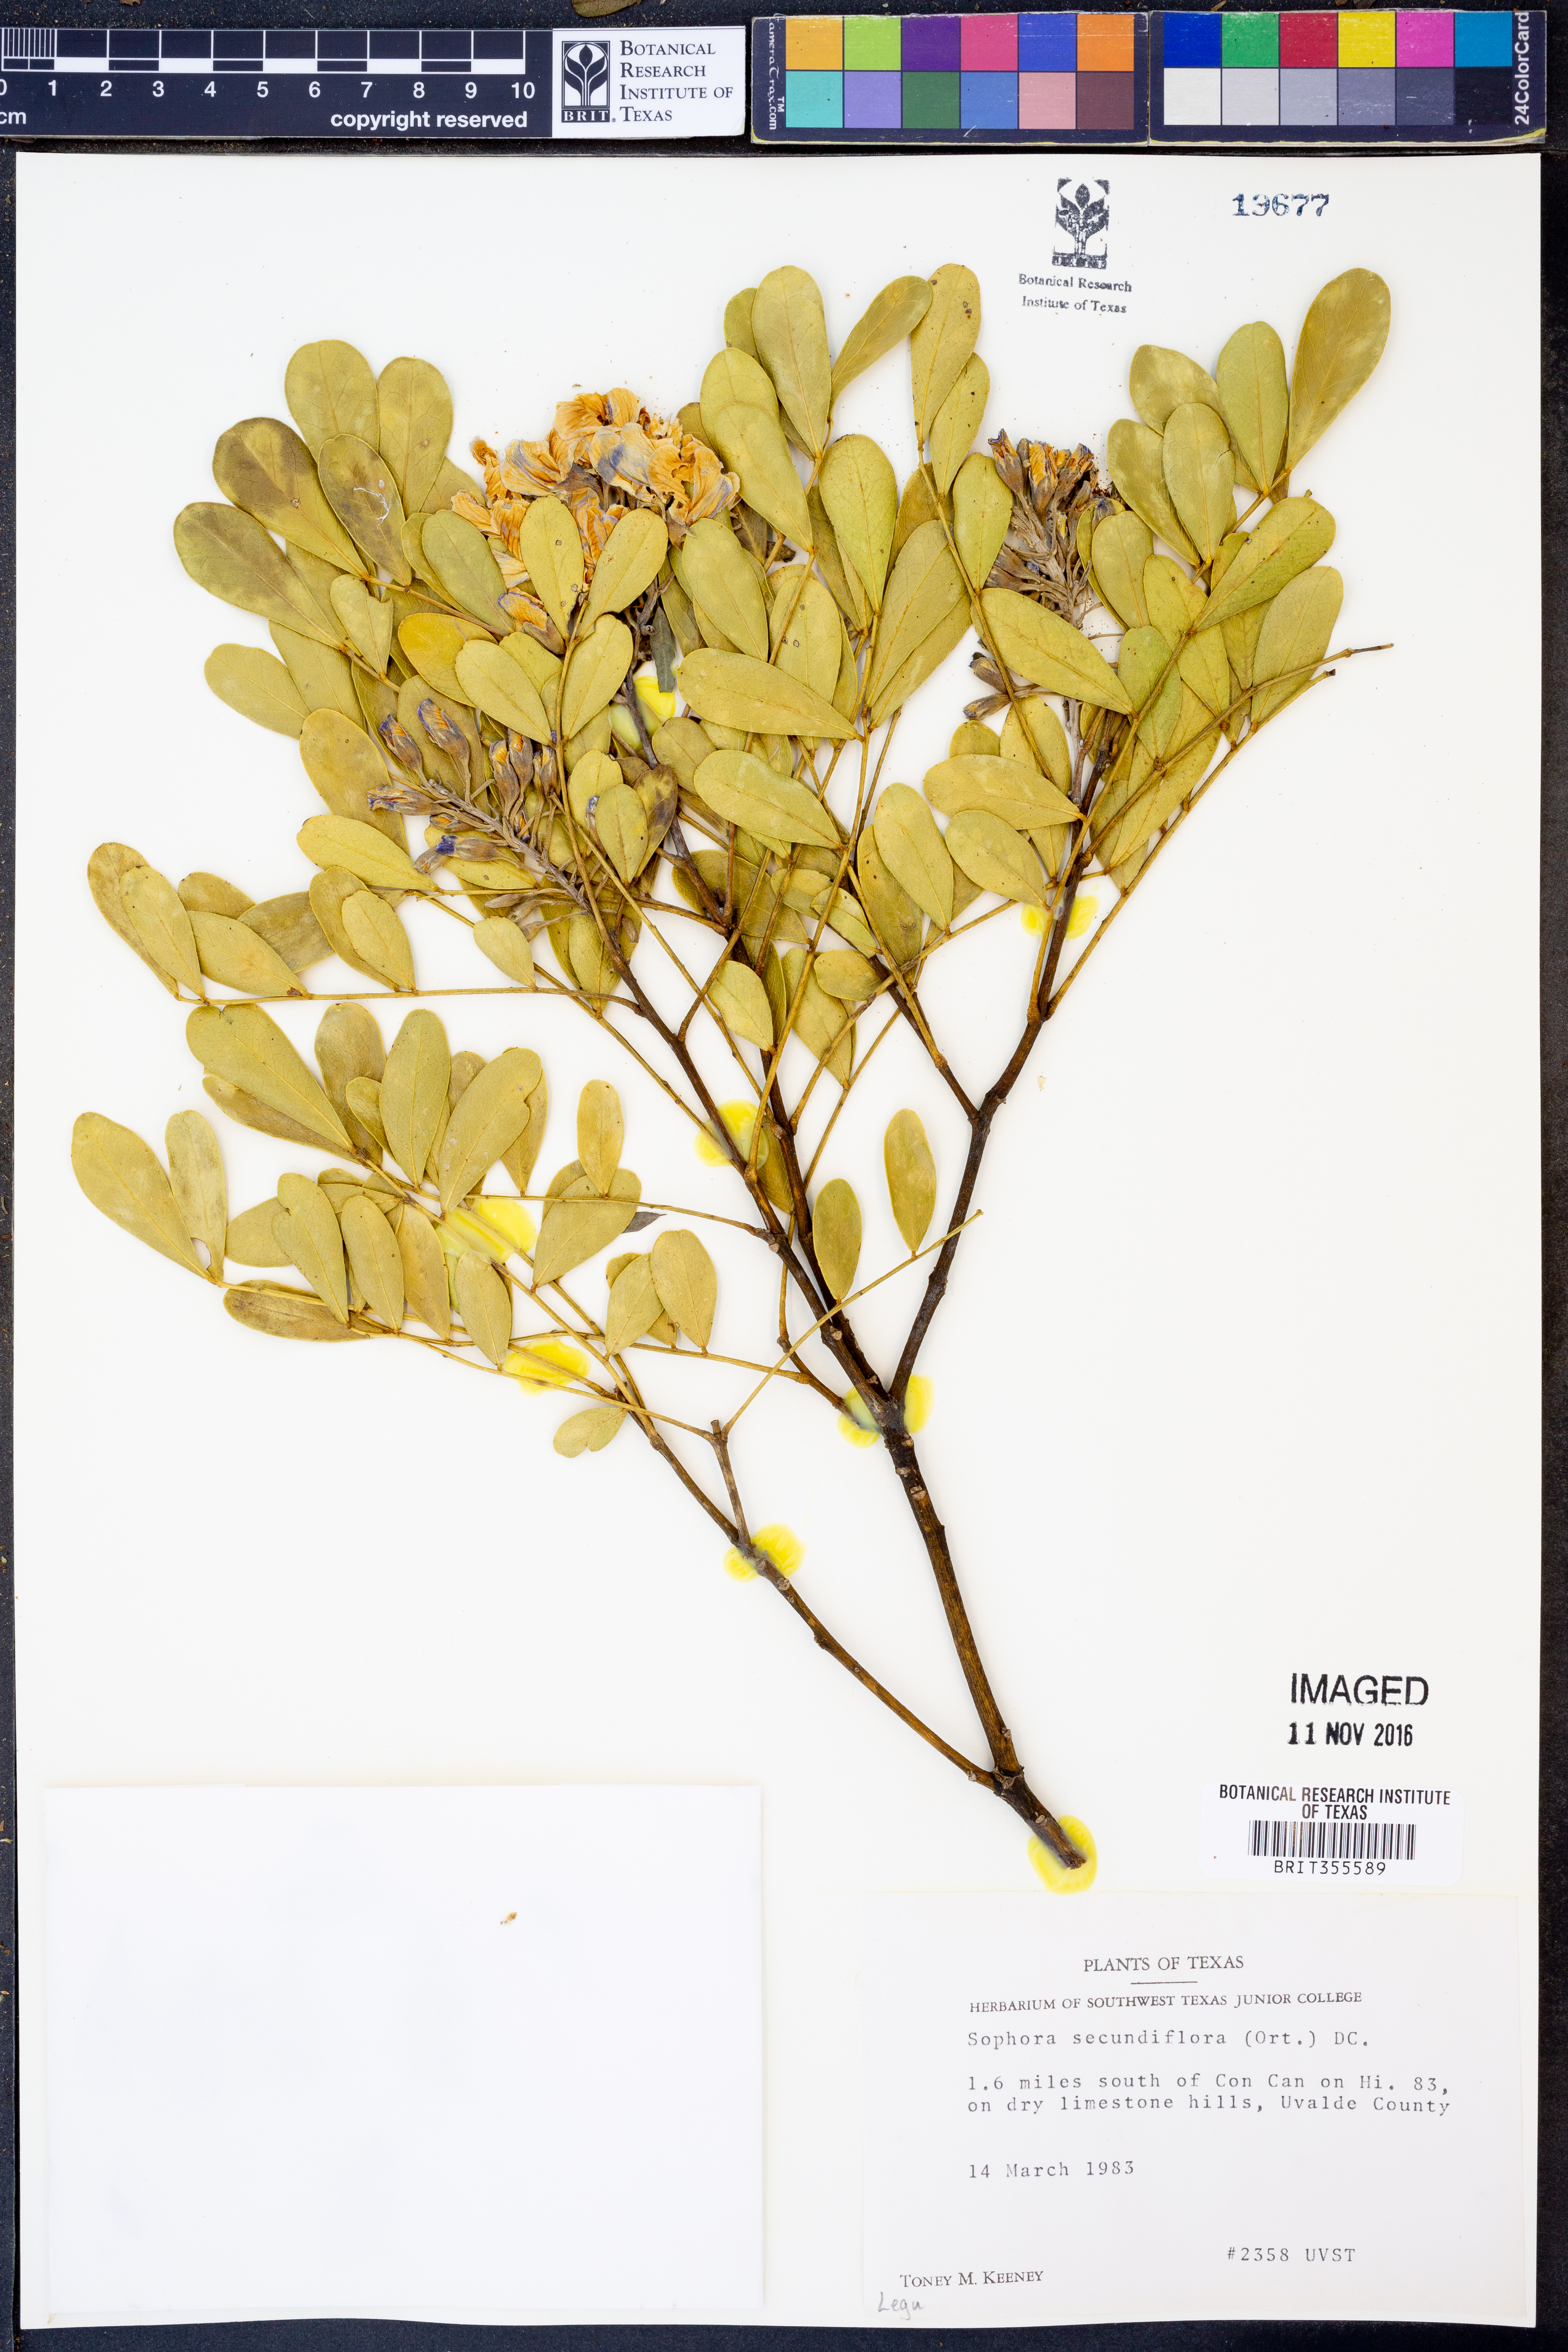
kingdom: Plantae
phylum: Tracheophyta
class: Magnoliopsida
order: Fabales
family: Fabaceae
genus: Dermatophyllum
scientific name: Dermatophyllum secundiflorum
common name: Texas-mountain-laurel
